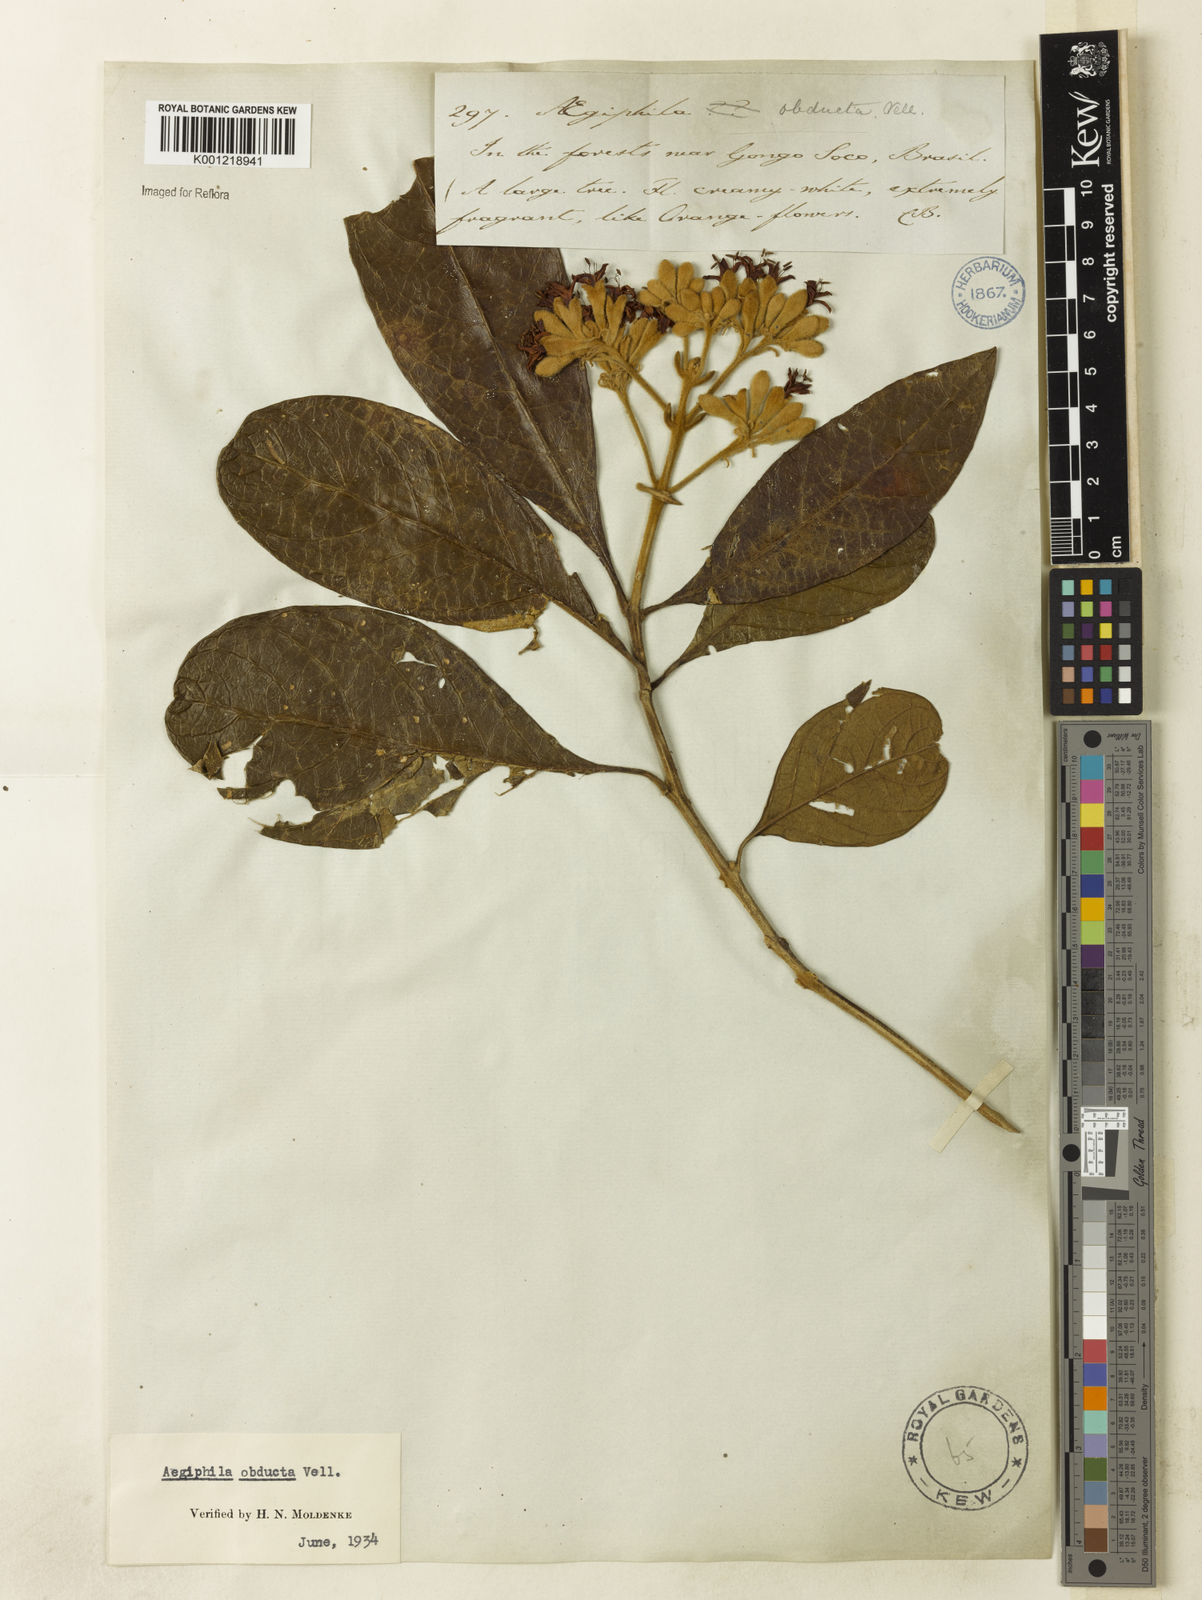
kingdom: Plantae
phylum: Tracheophyta
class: Magnoliopsida
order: Lamiales
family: Lamiaceae
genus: Aegiphila
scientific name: Aegiphila obducta
